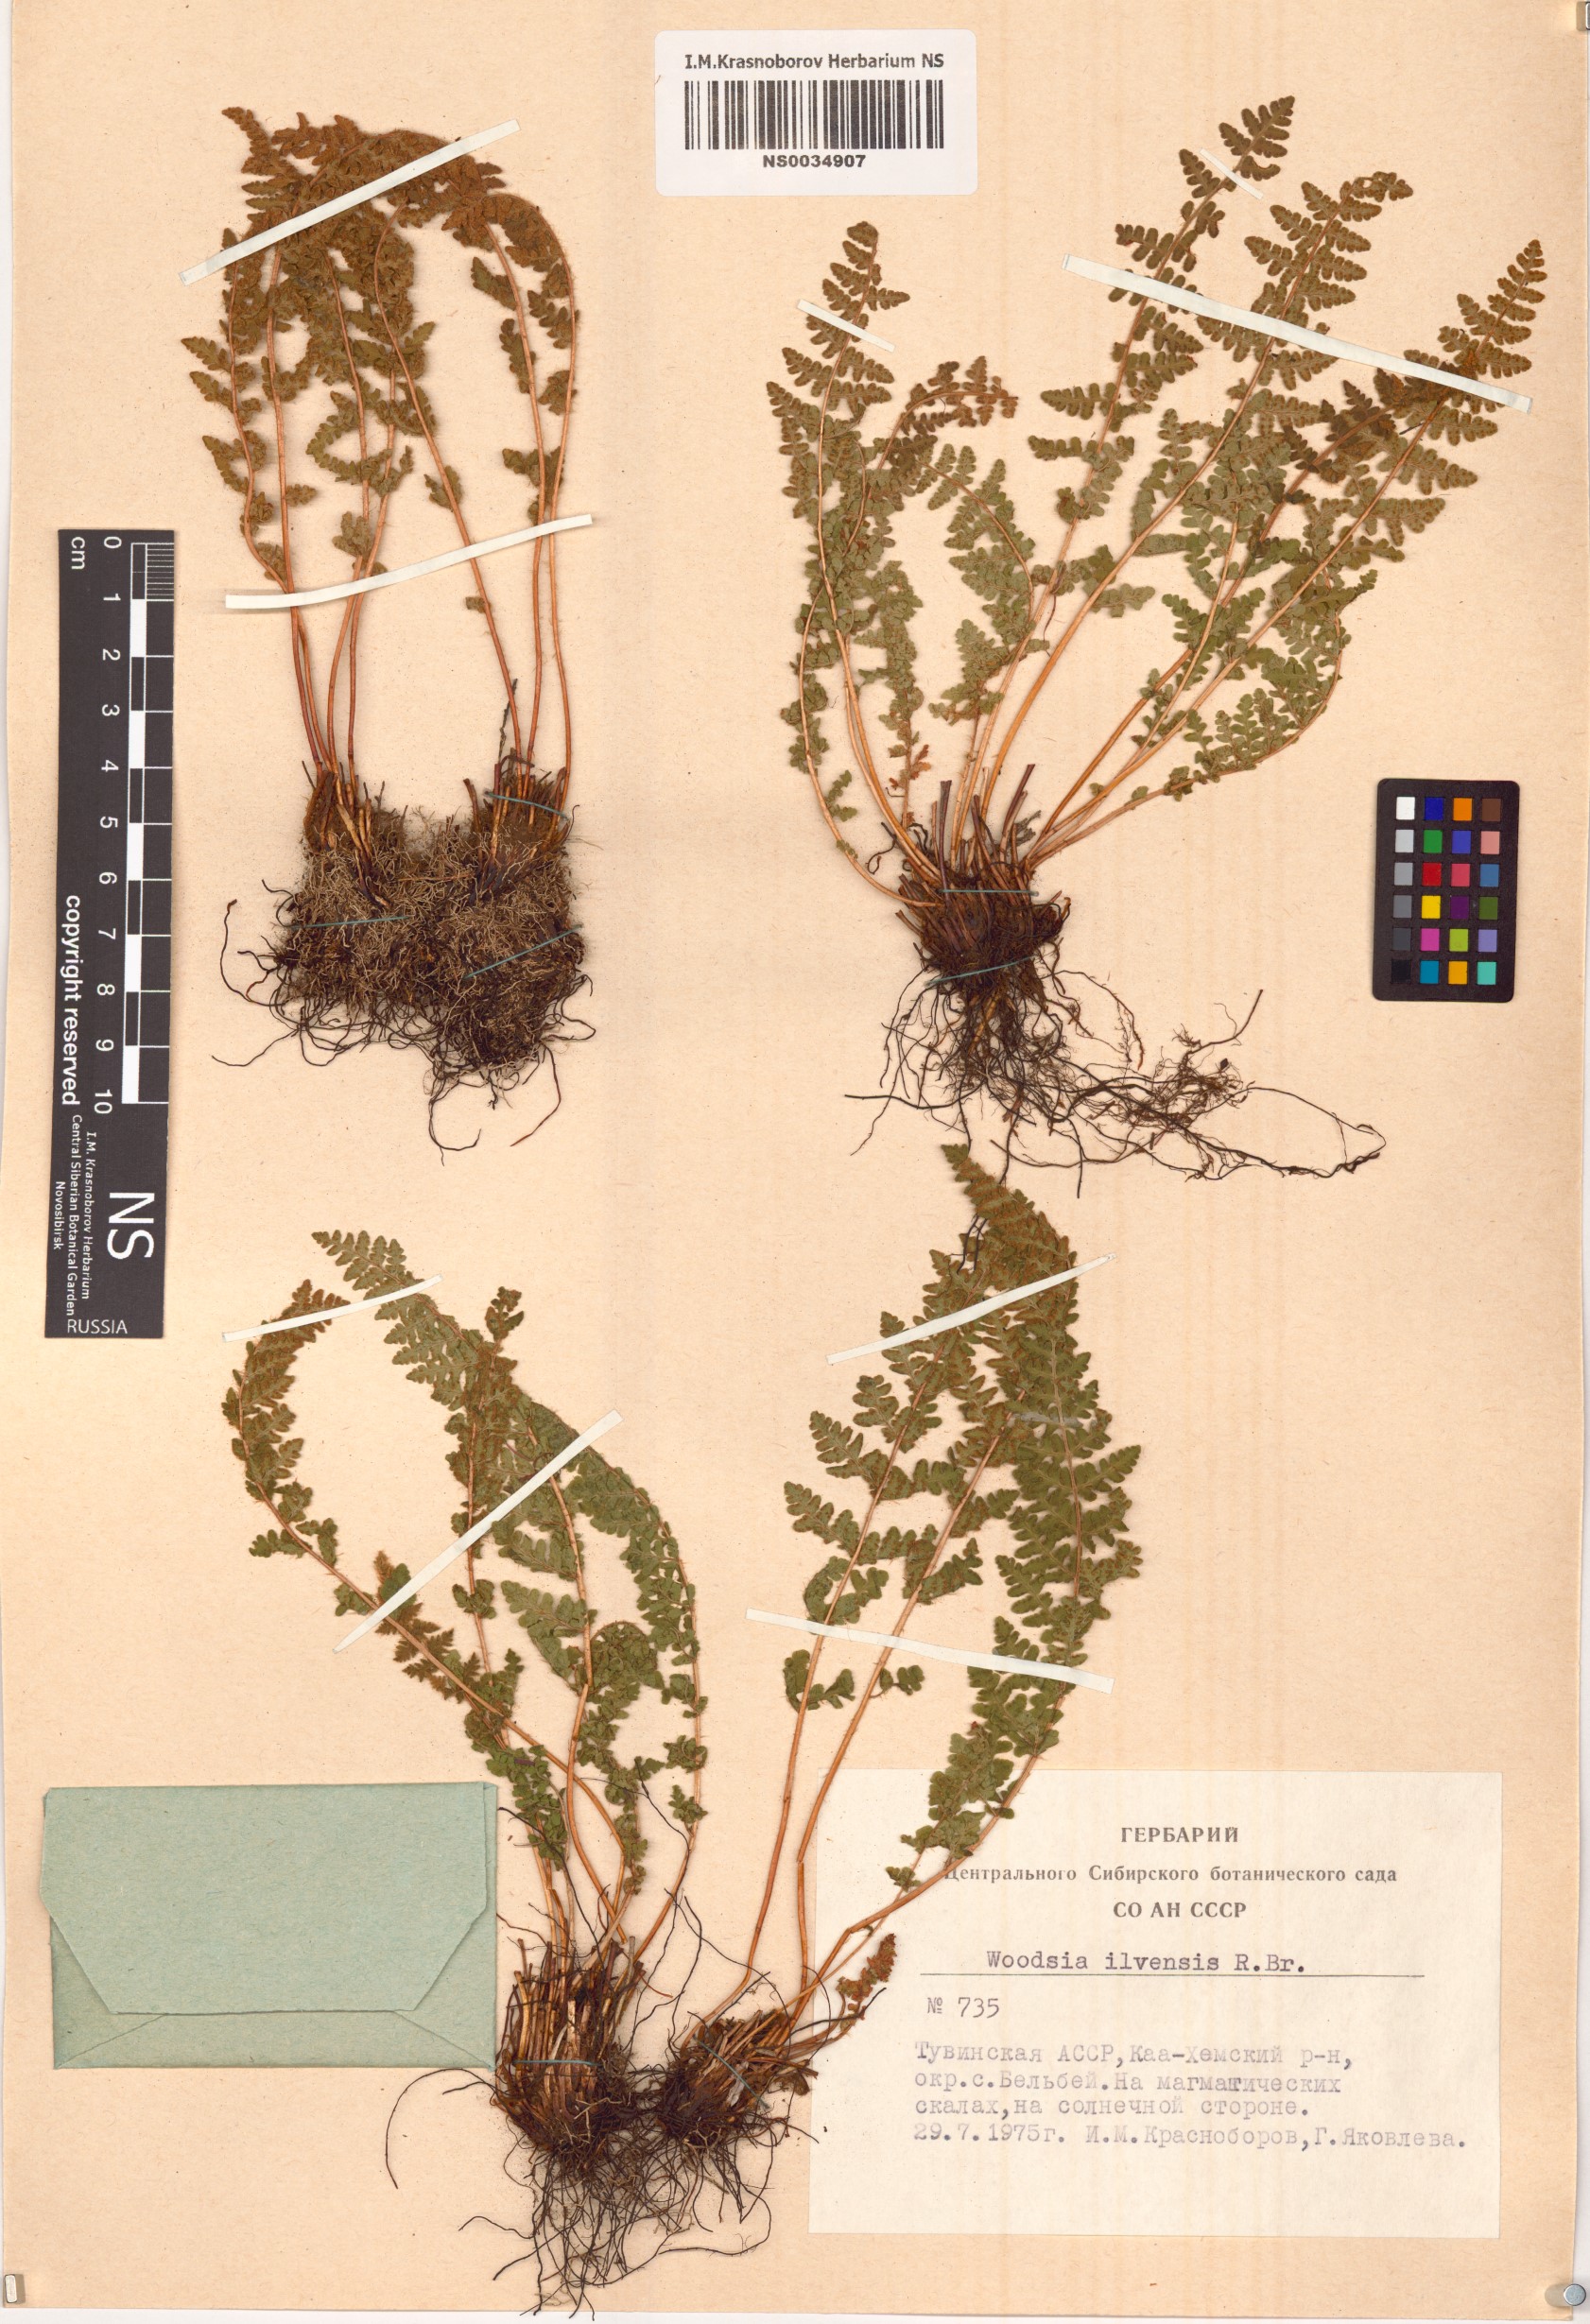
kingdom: Plantae
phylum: Tracheophyta
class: Polypodiopsida
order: Polypodiales
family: Woodsiaceae
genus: Woodsia
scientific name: Woodsia ilvensis
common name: Fragrant woodsia
